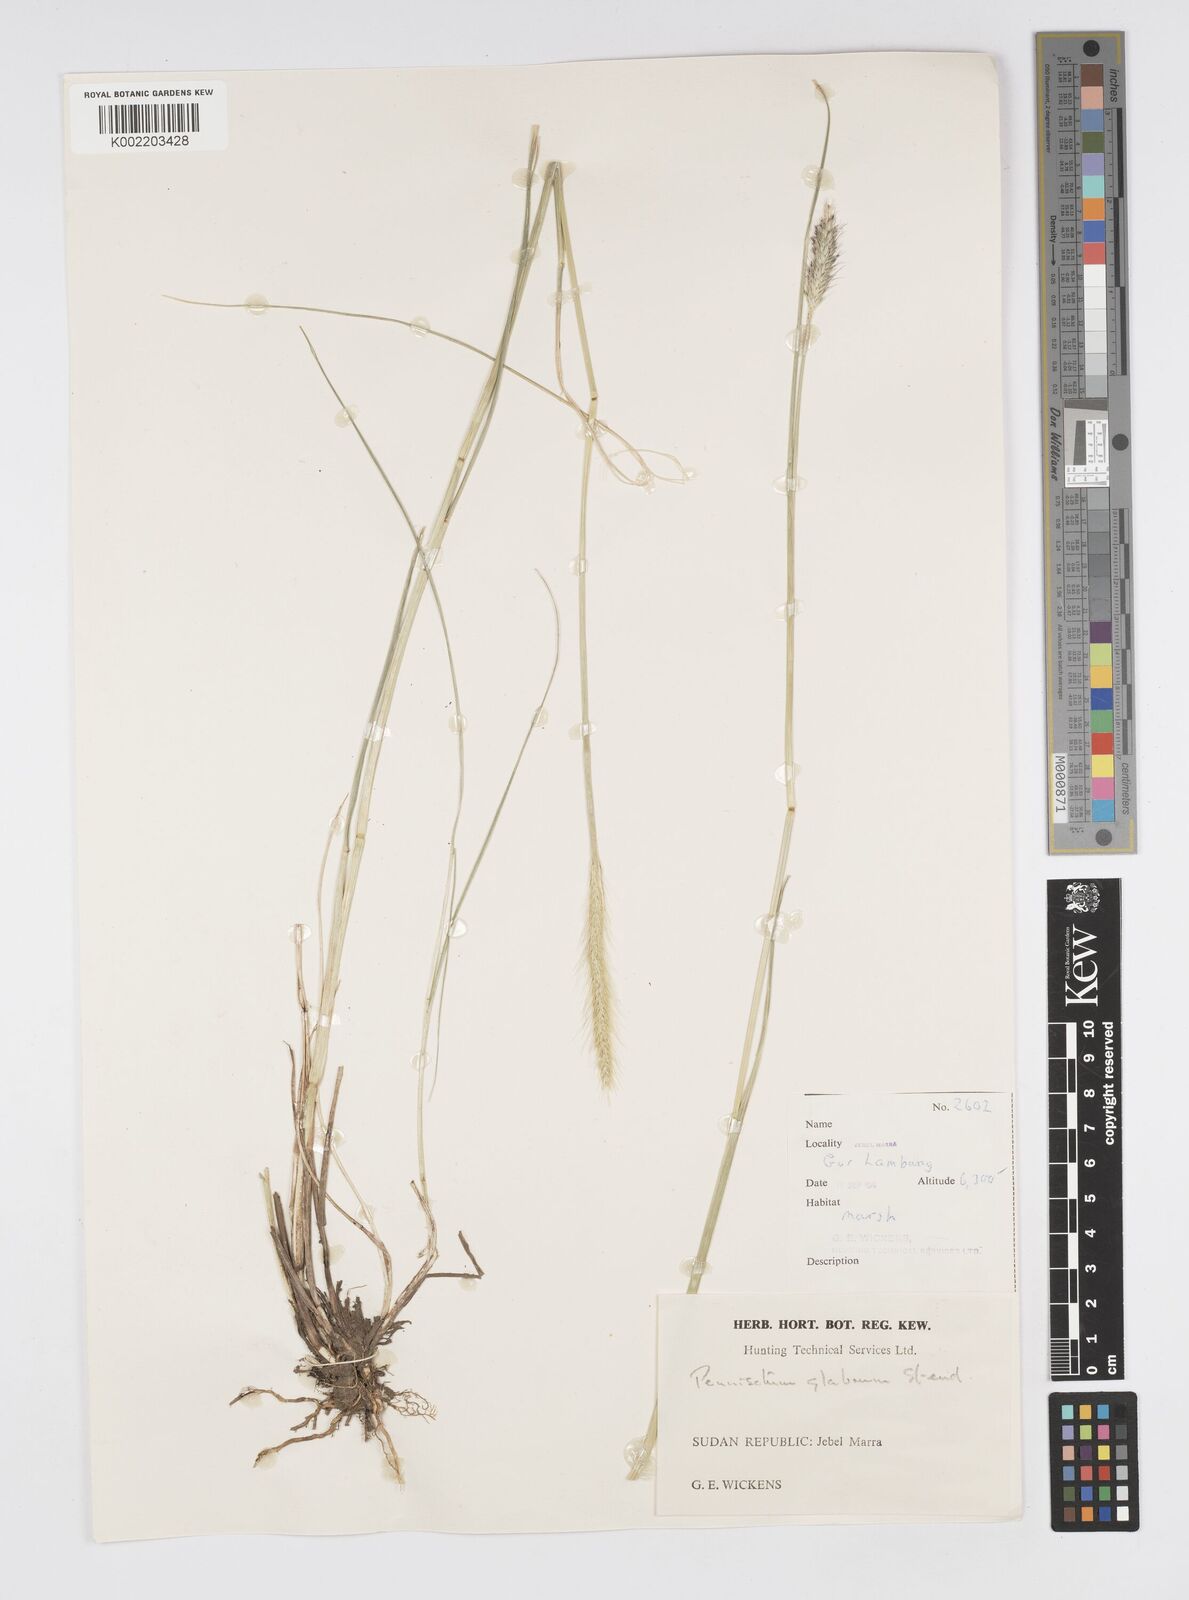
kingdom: Plantae
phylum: Tracheophyta
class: Liliopsida
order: Poales
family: Poaceae
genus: Cenchrus
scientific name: Cenchrus geniculatus
